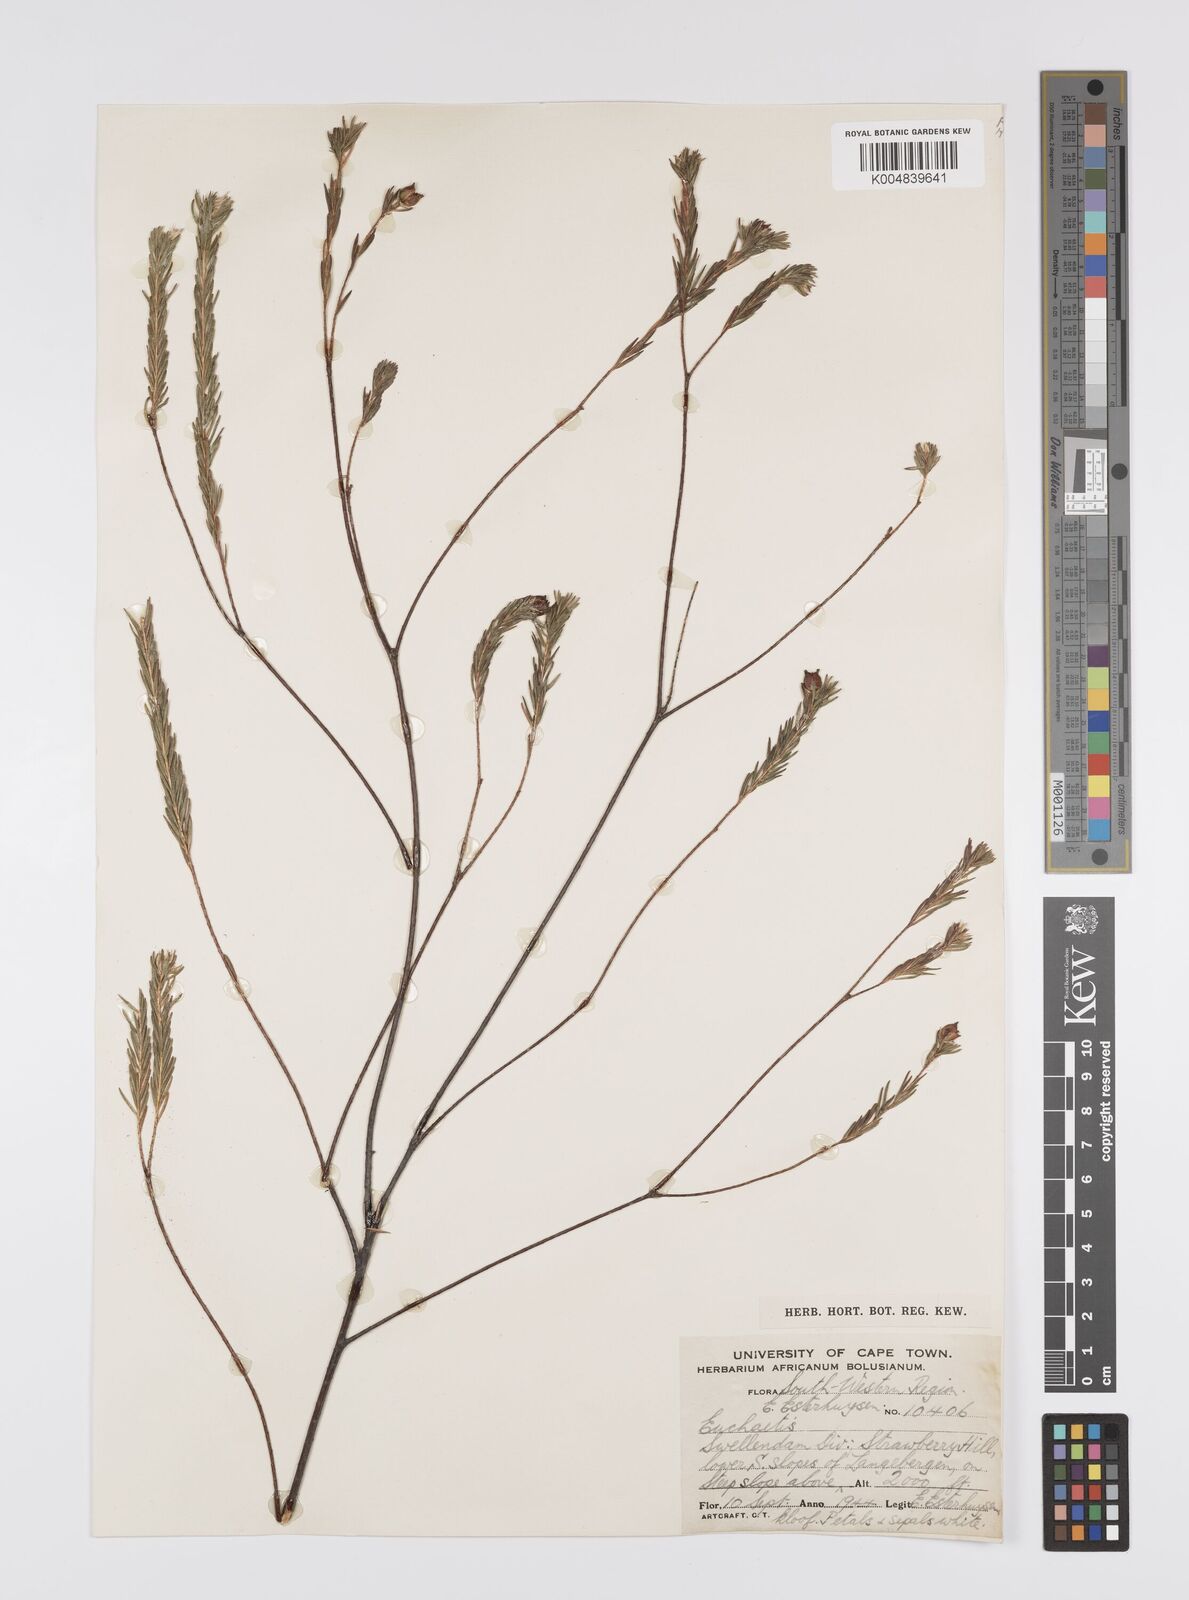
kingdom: Plantae
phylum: Tracheophyta
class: Magnoliopsida
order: Sapindales
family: Rutaceae
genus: Euchaetis
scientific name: Euchaetis avisylvana
